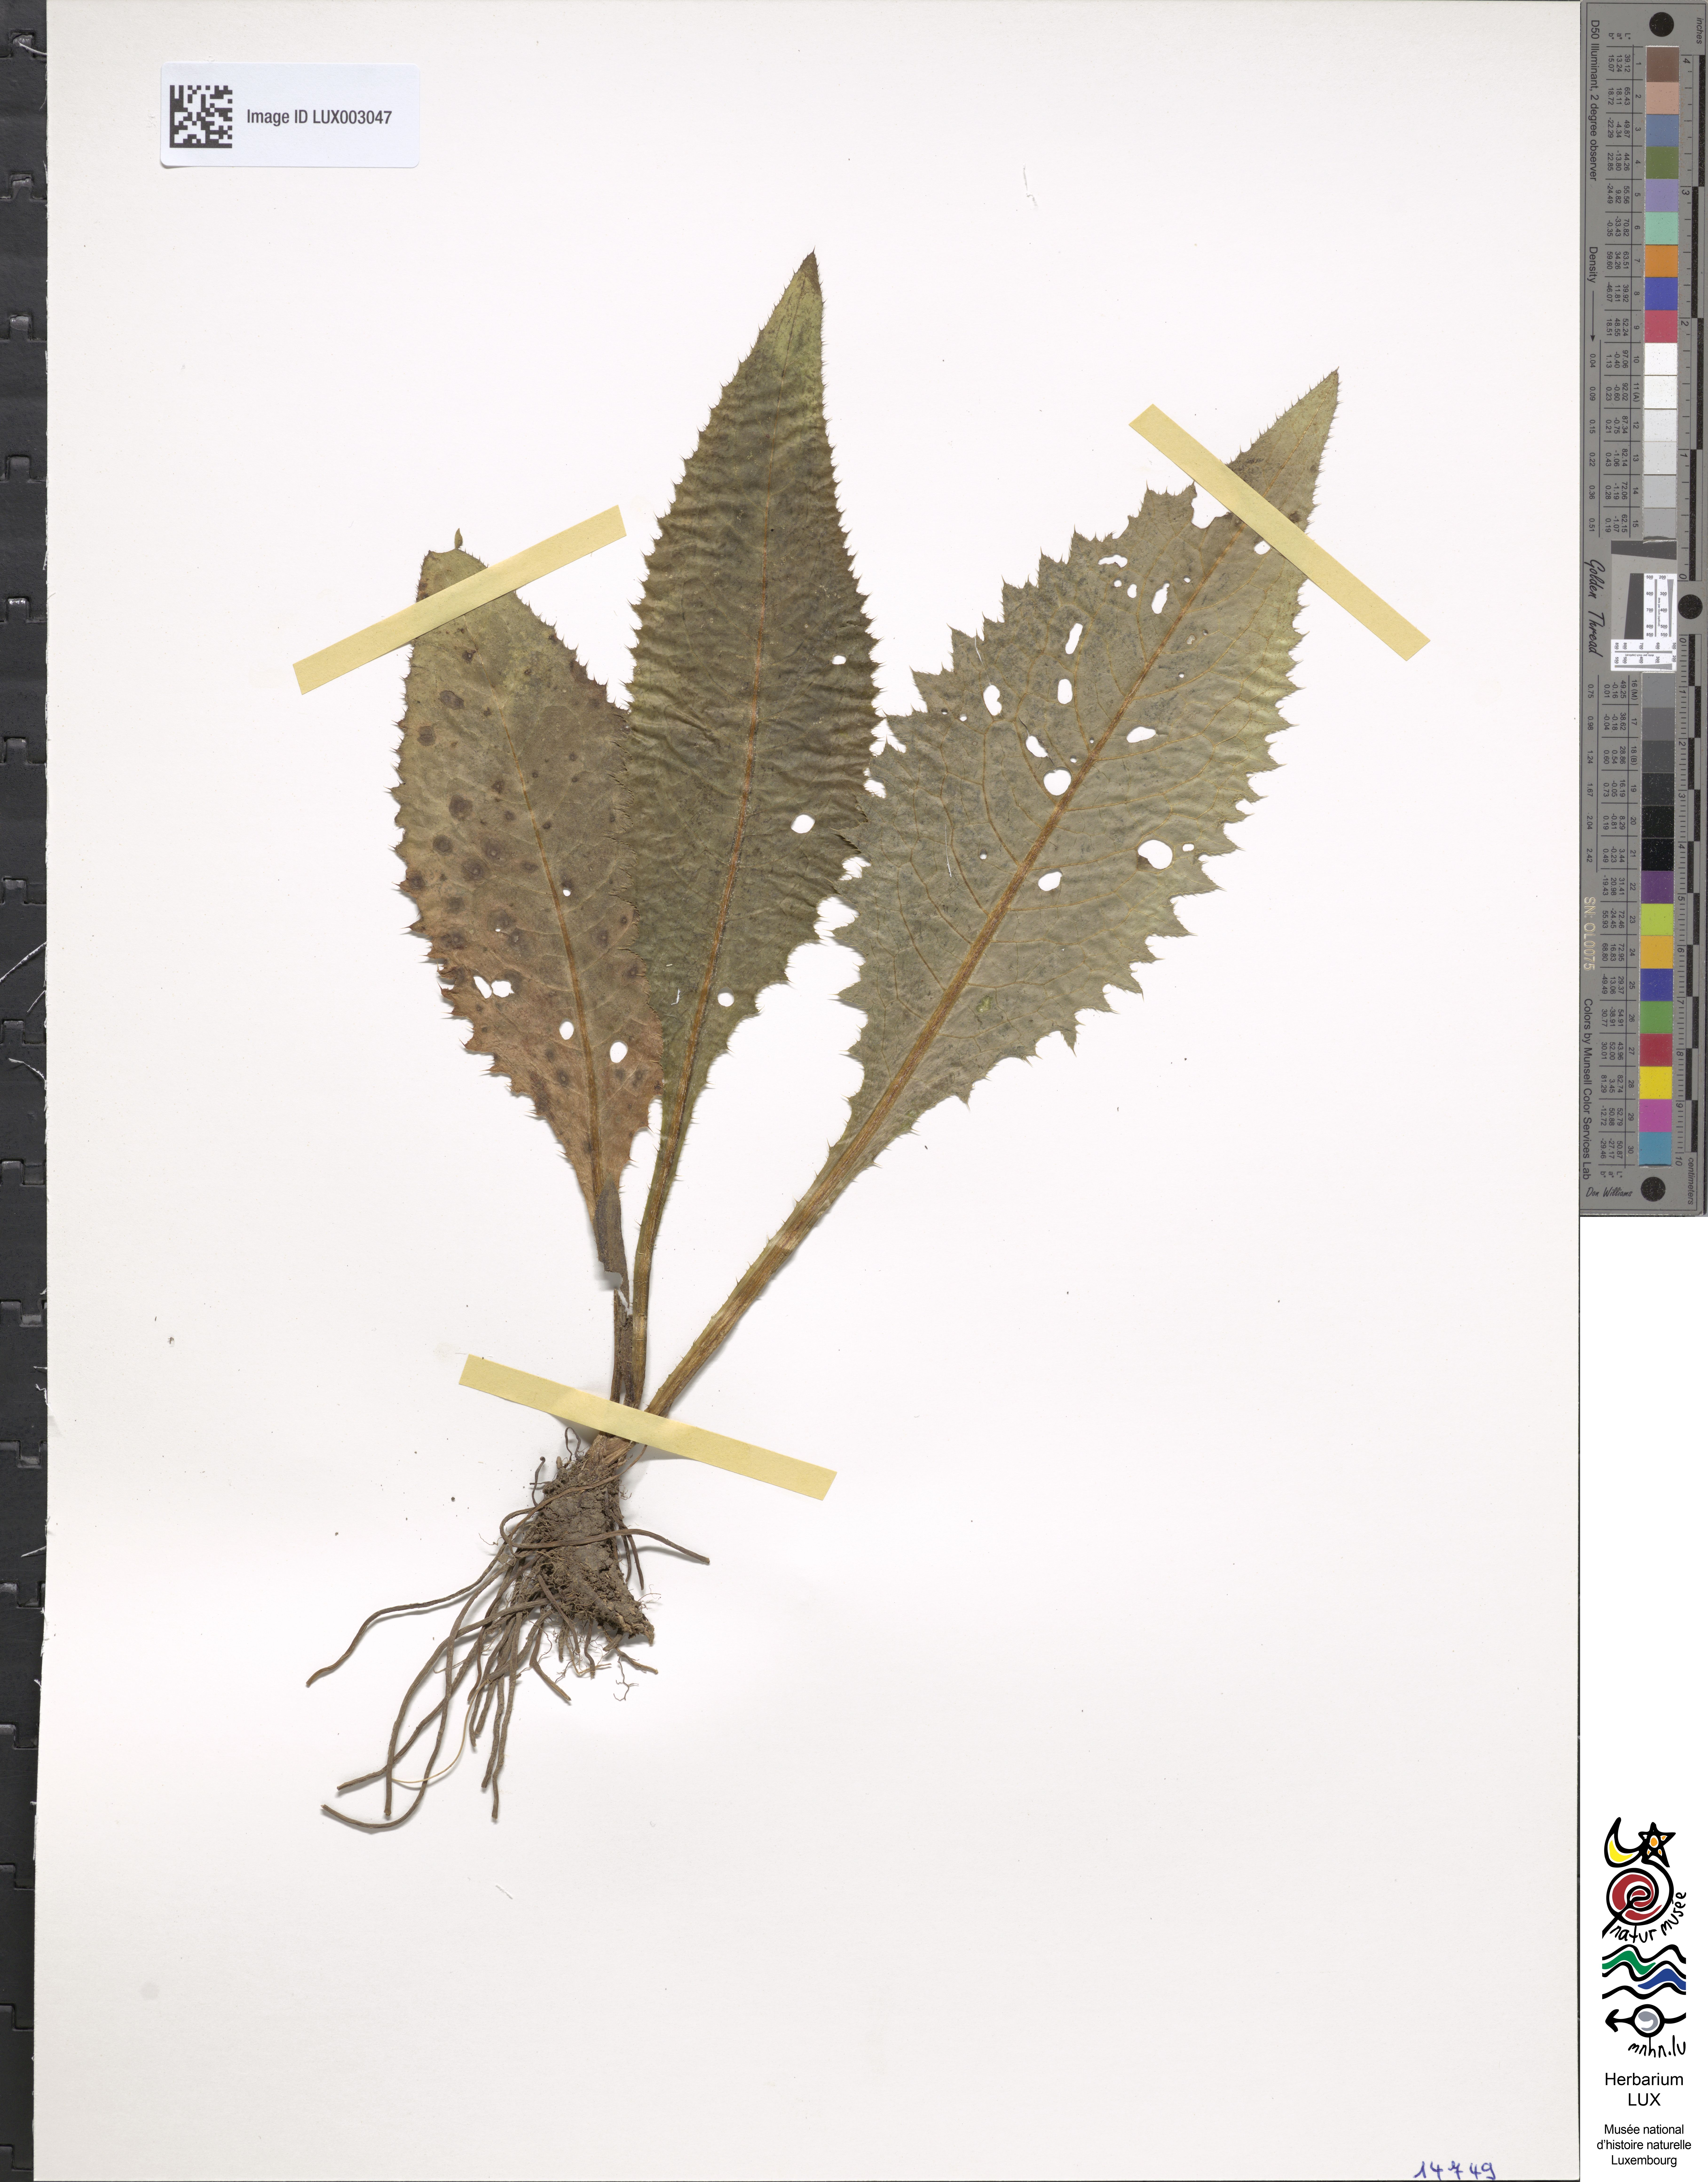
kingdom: Plantae
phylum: Tracheophyta
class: Magnoliopsida
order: Asterales
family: Asteraceae
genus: Cirsium
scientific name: Cirsium rivulare
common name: Brook thistle
